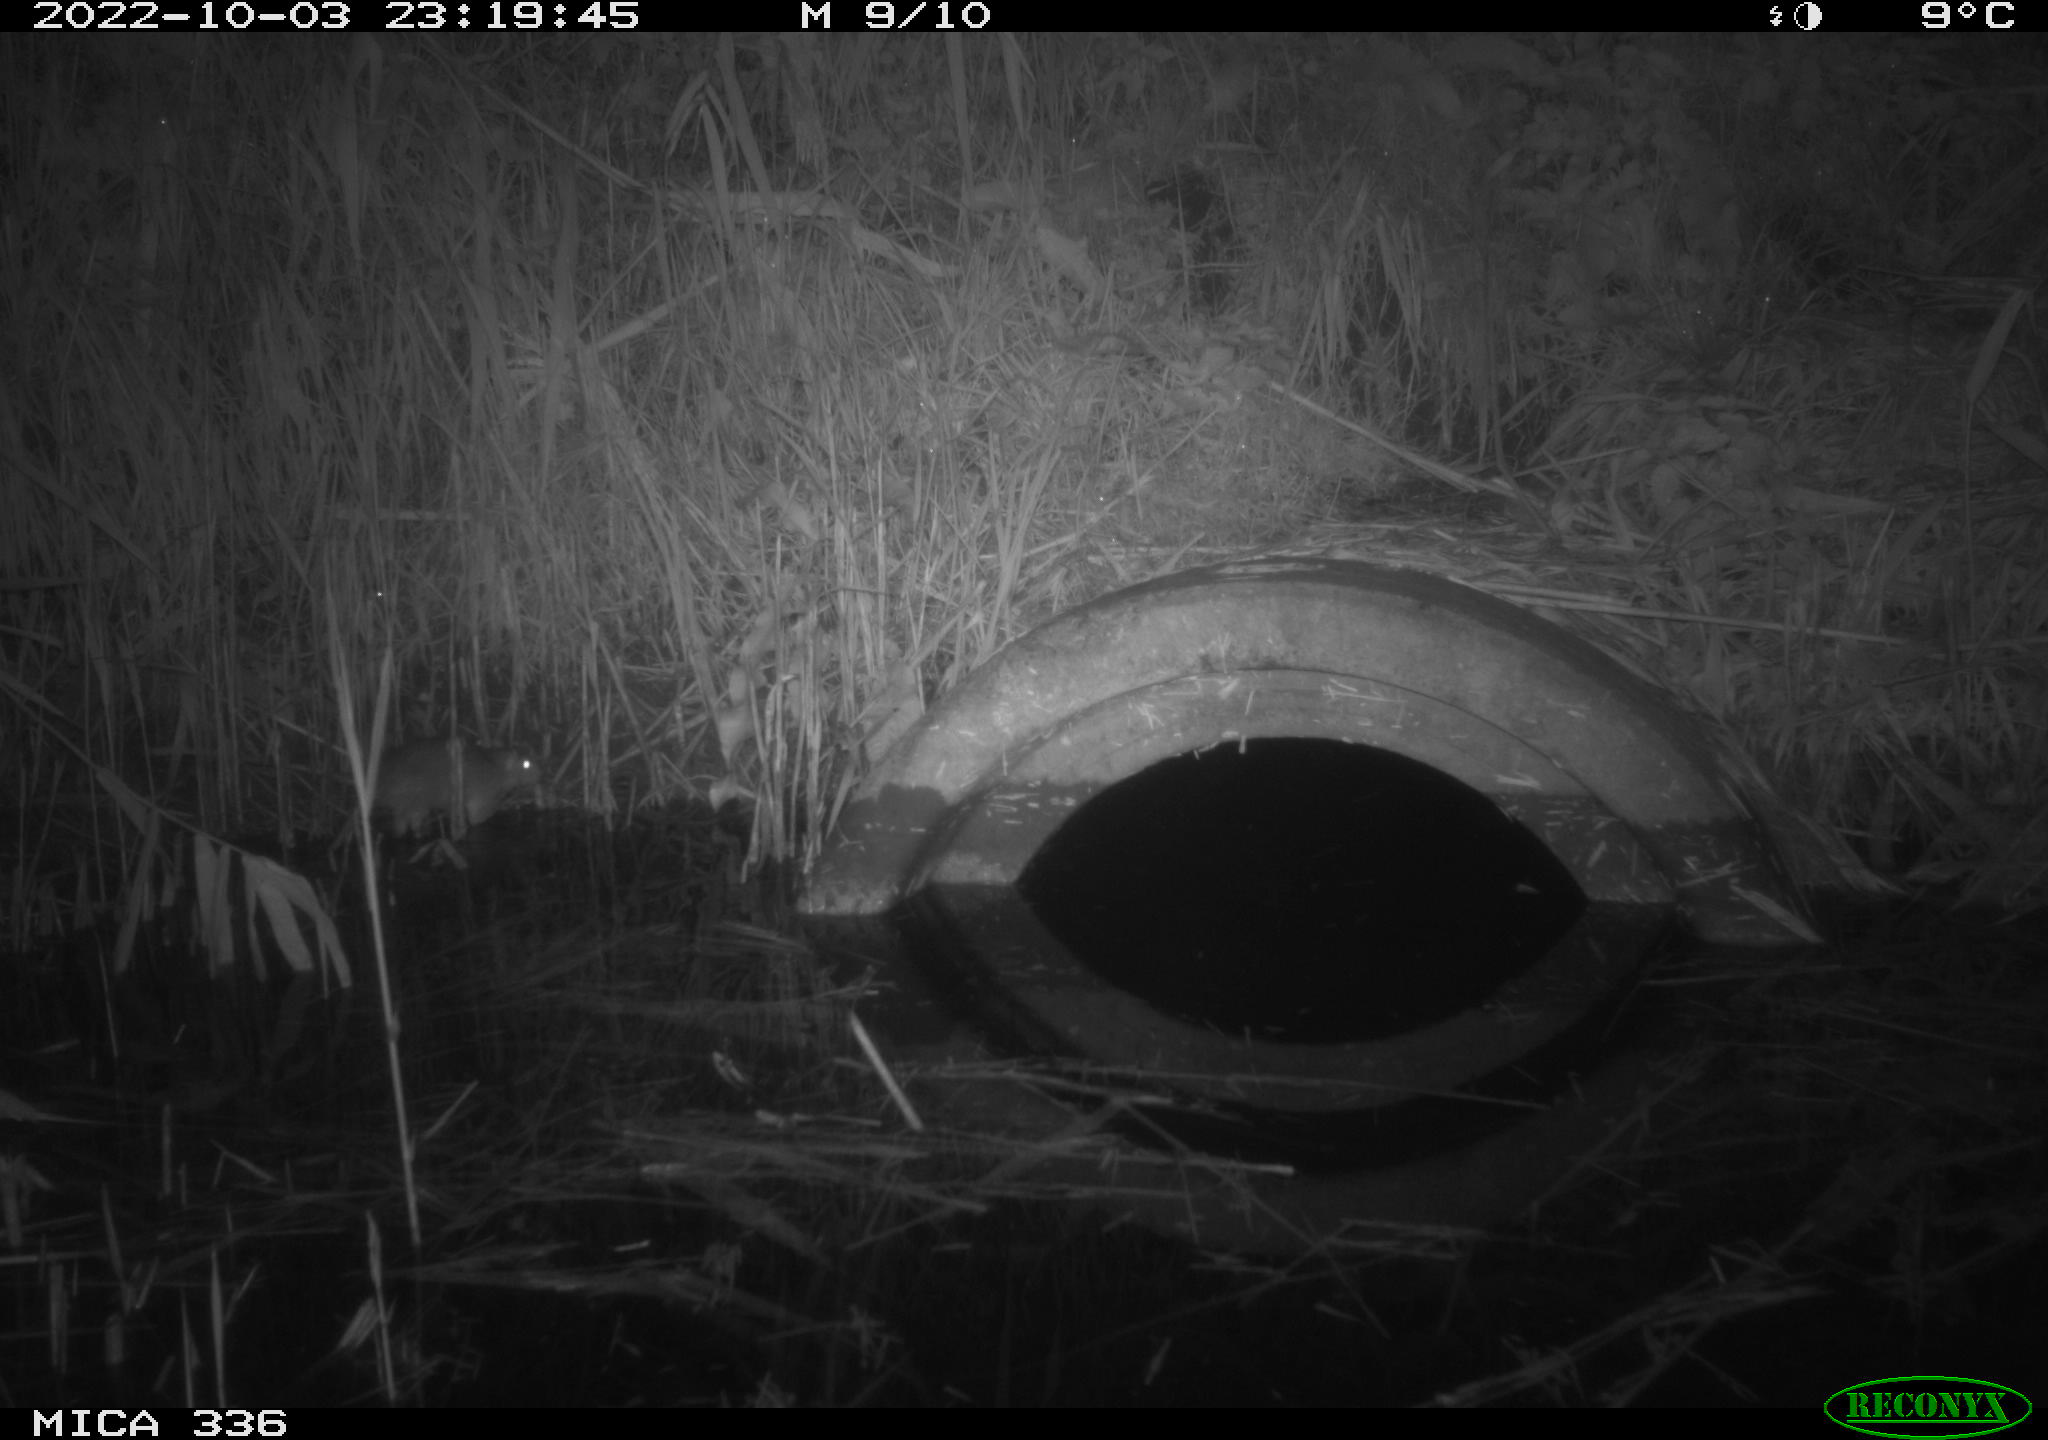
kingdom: Animalia
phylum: Chordata
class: Mammalia
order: Rodentia
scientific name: Rodentia
